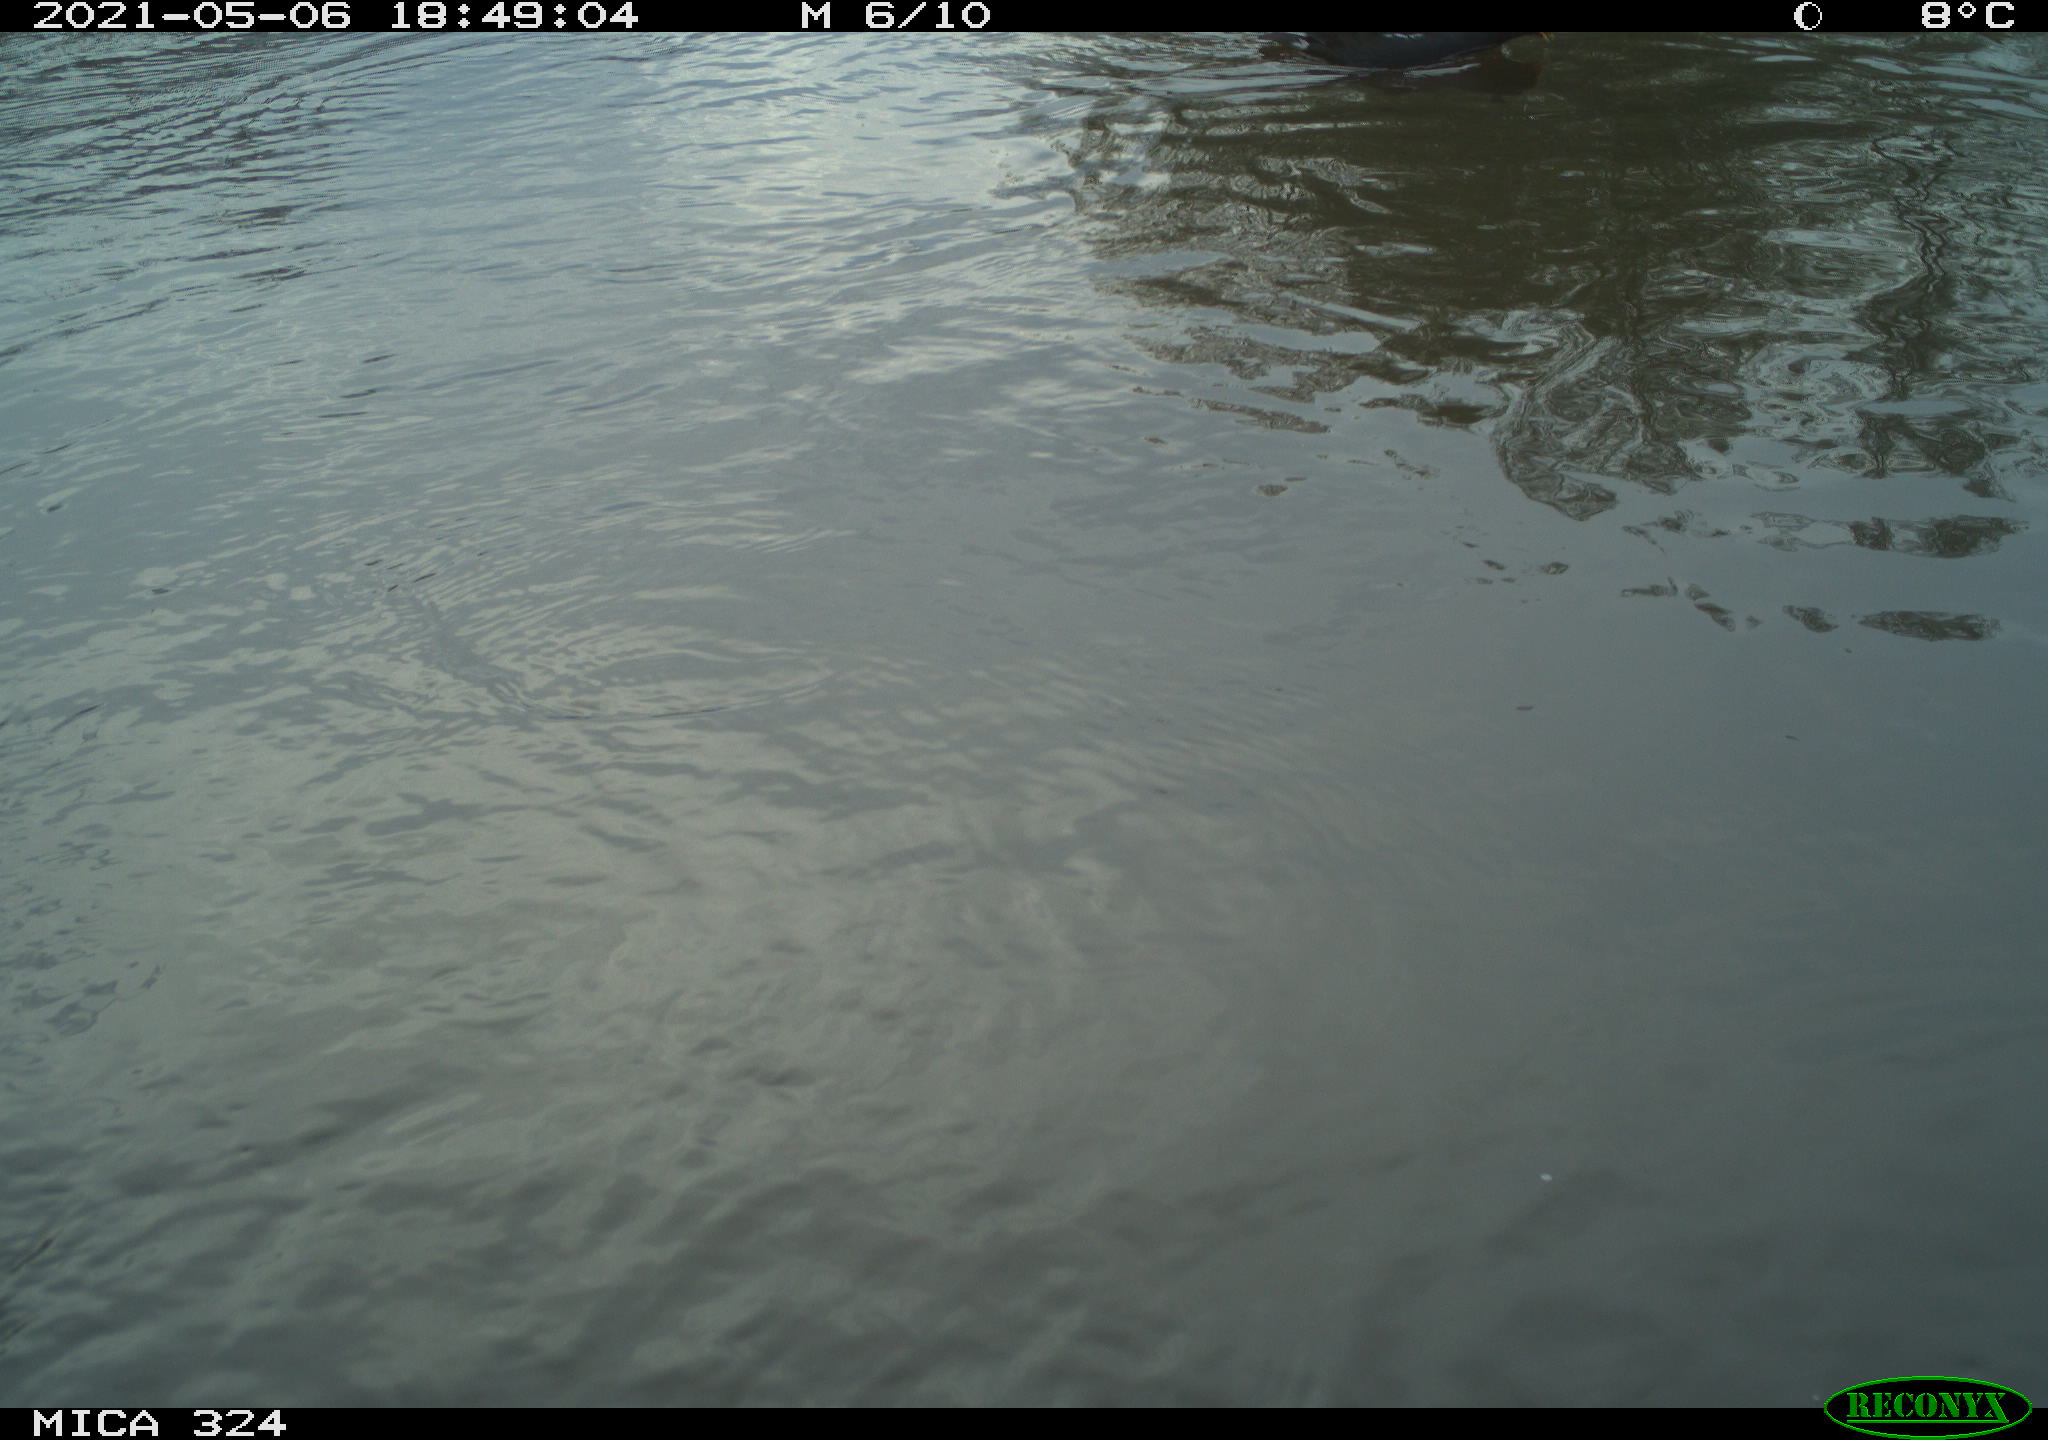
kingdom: Animalia
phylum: Chordata
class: Aves
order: Gruiformes
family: Rallidae
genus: Gallinula
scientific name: Gallinula chloropus
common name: Common moorhen
